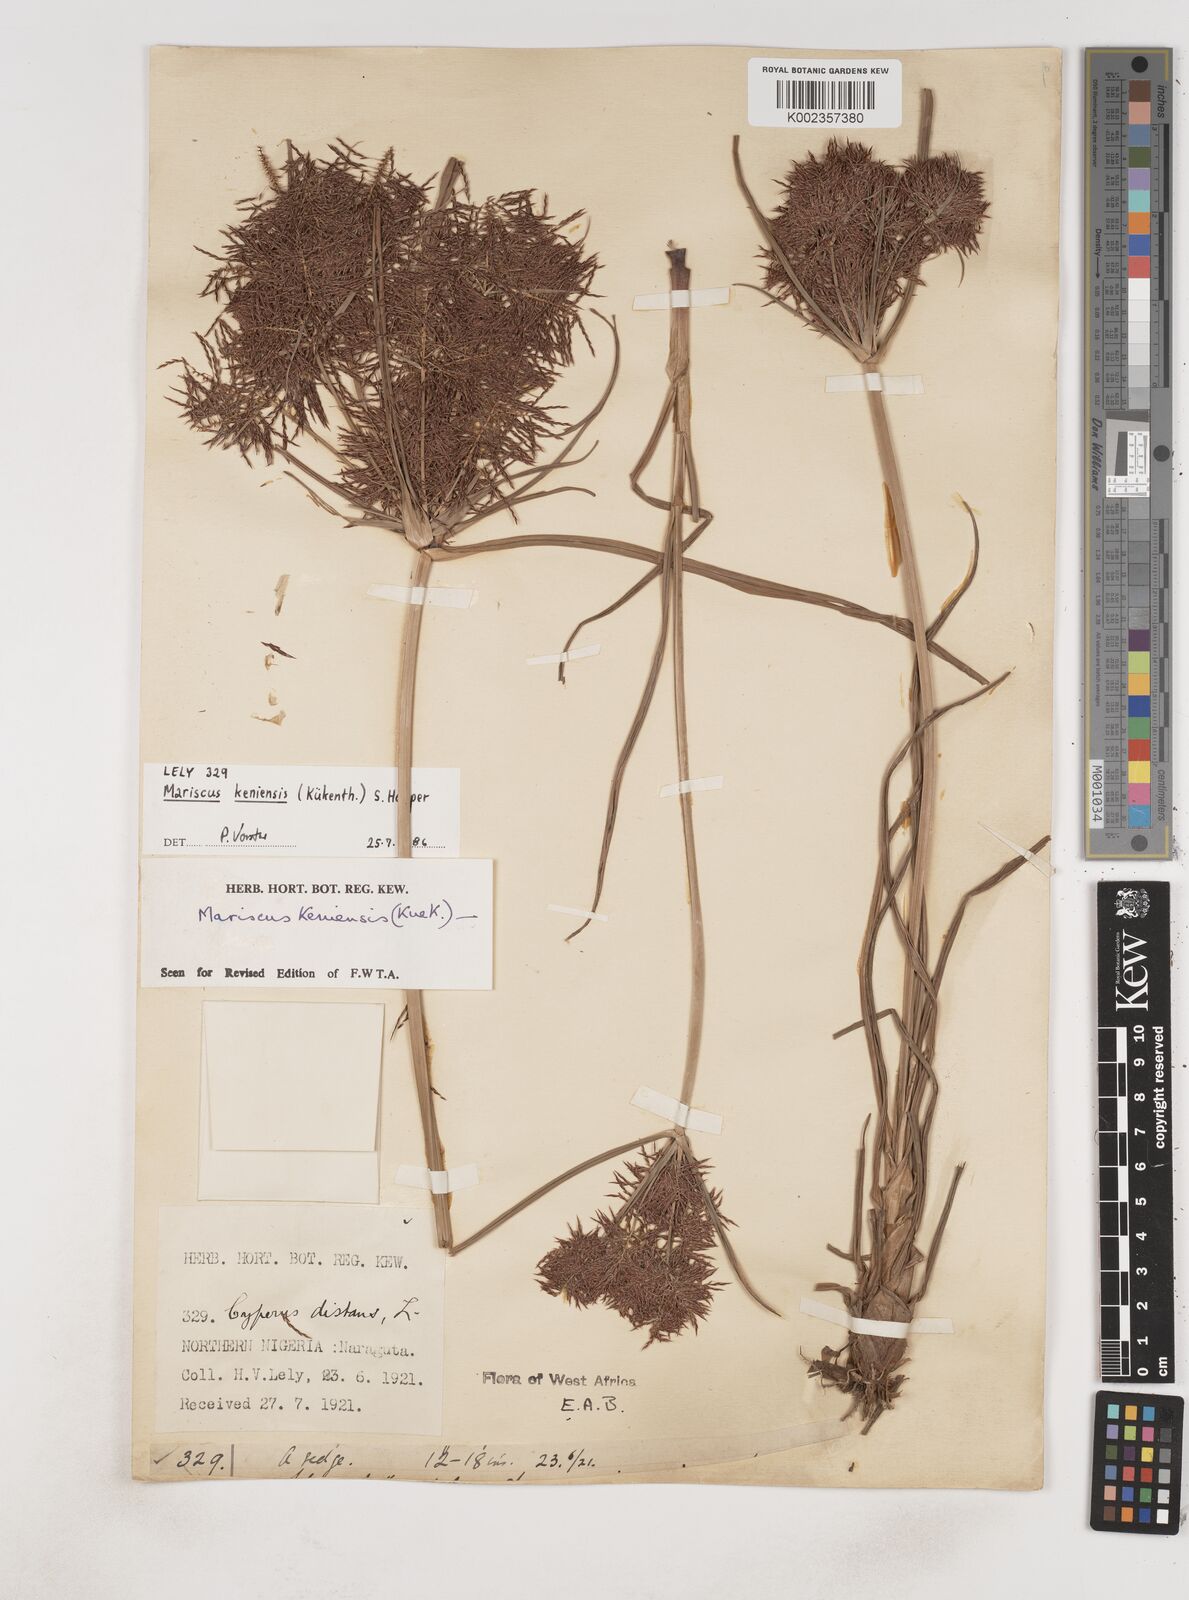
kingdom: Plantae
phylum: Tracheophyta
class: Liliopsida
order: Poales
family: Cyperaceae
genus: Cyperus
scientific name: Cyperus distans
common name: Slender cyperus
